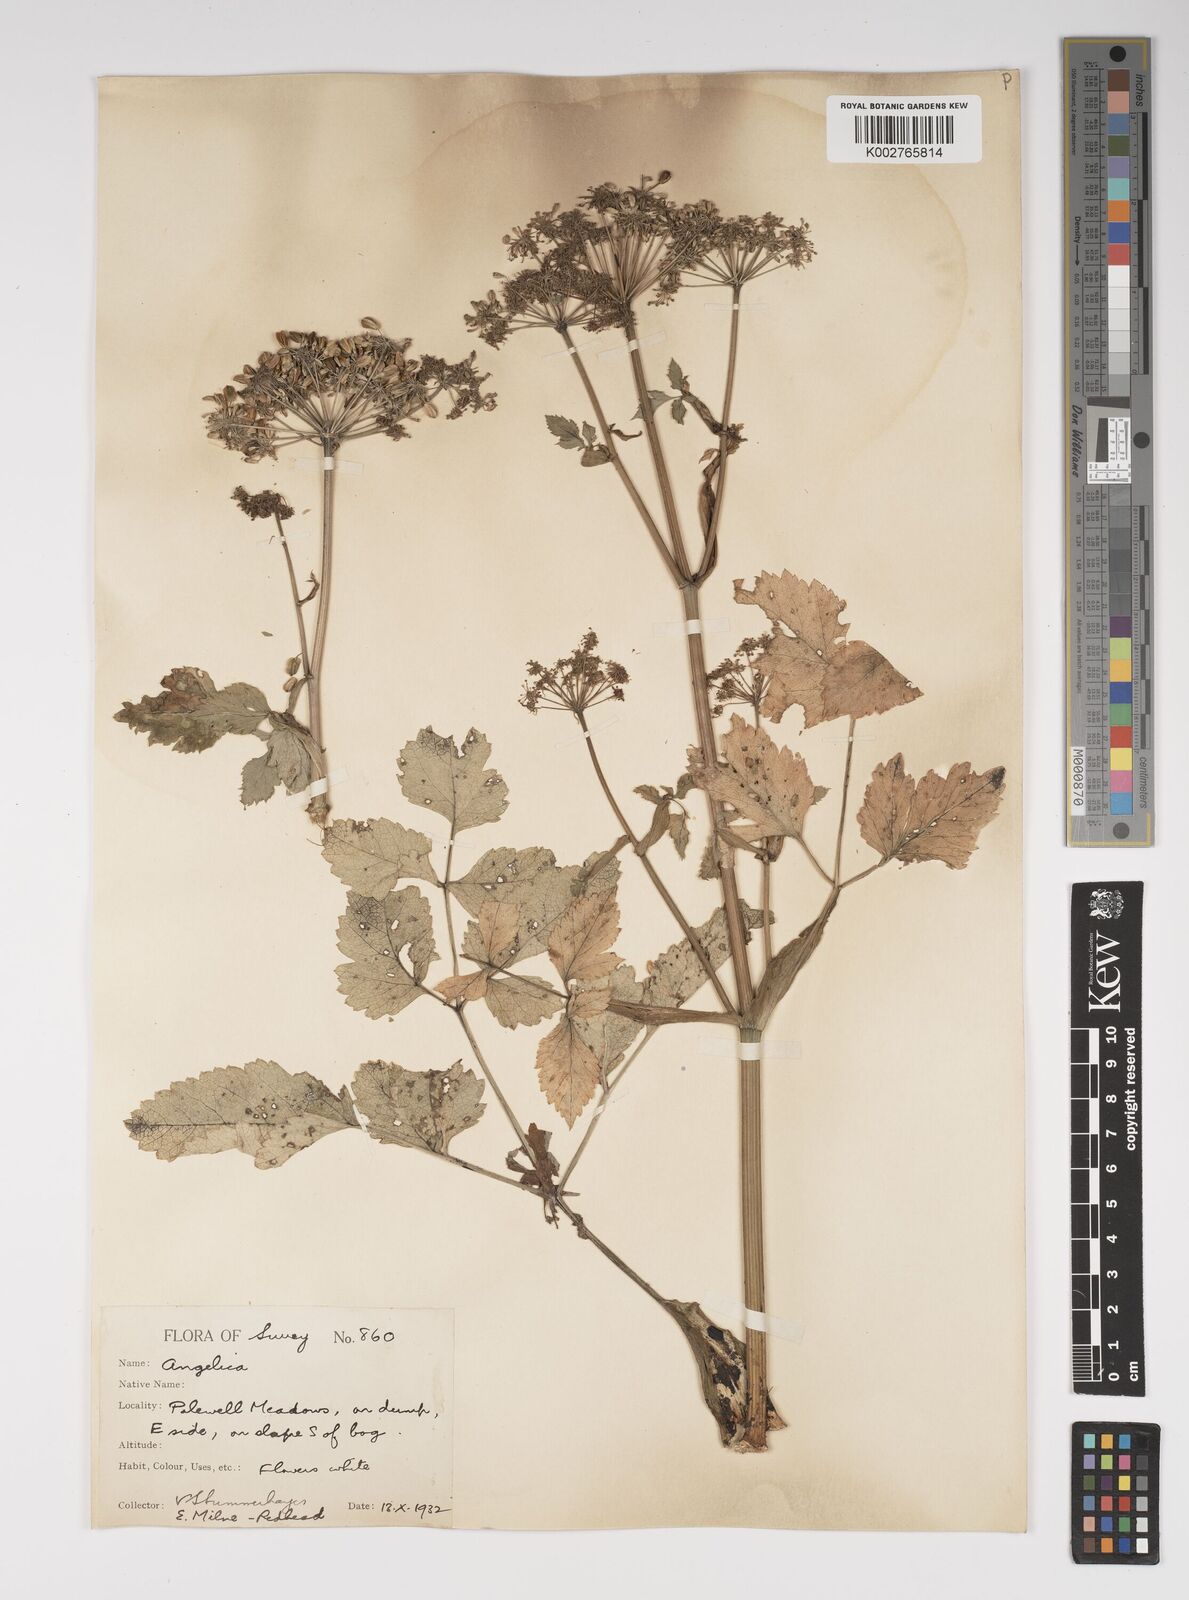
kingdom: Plantae
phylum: Tracheophyta
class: Magnoliopsida
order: Apiales
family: Apiaceae
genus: Angelica
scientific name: Angelica sylvestris
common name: Wild angelica
